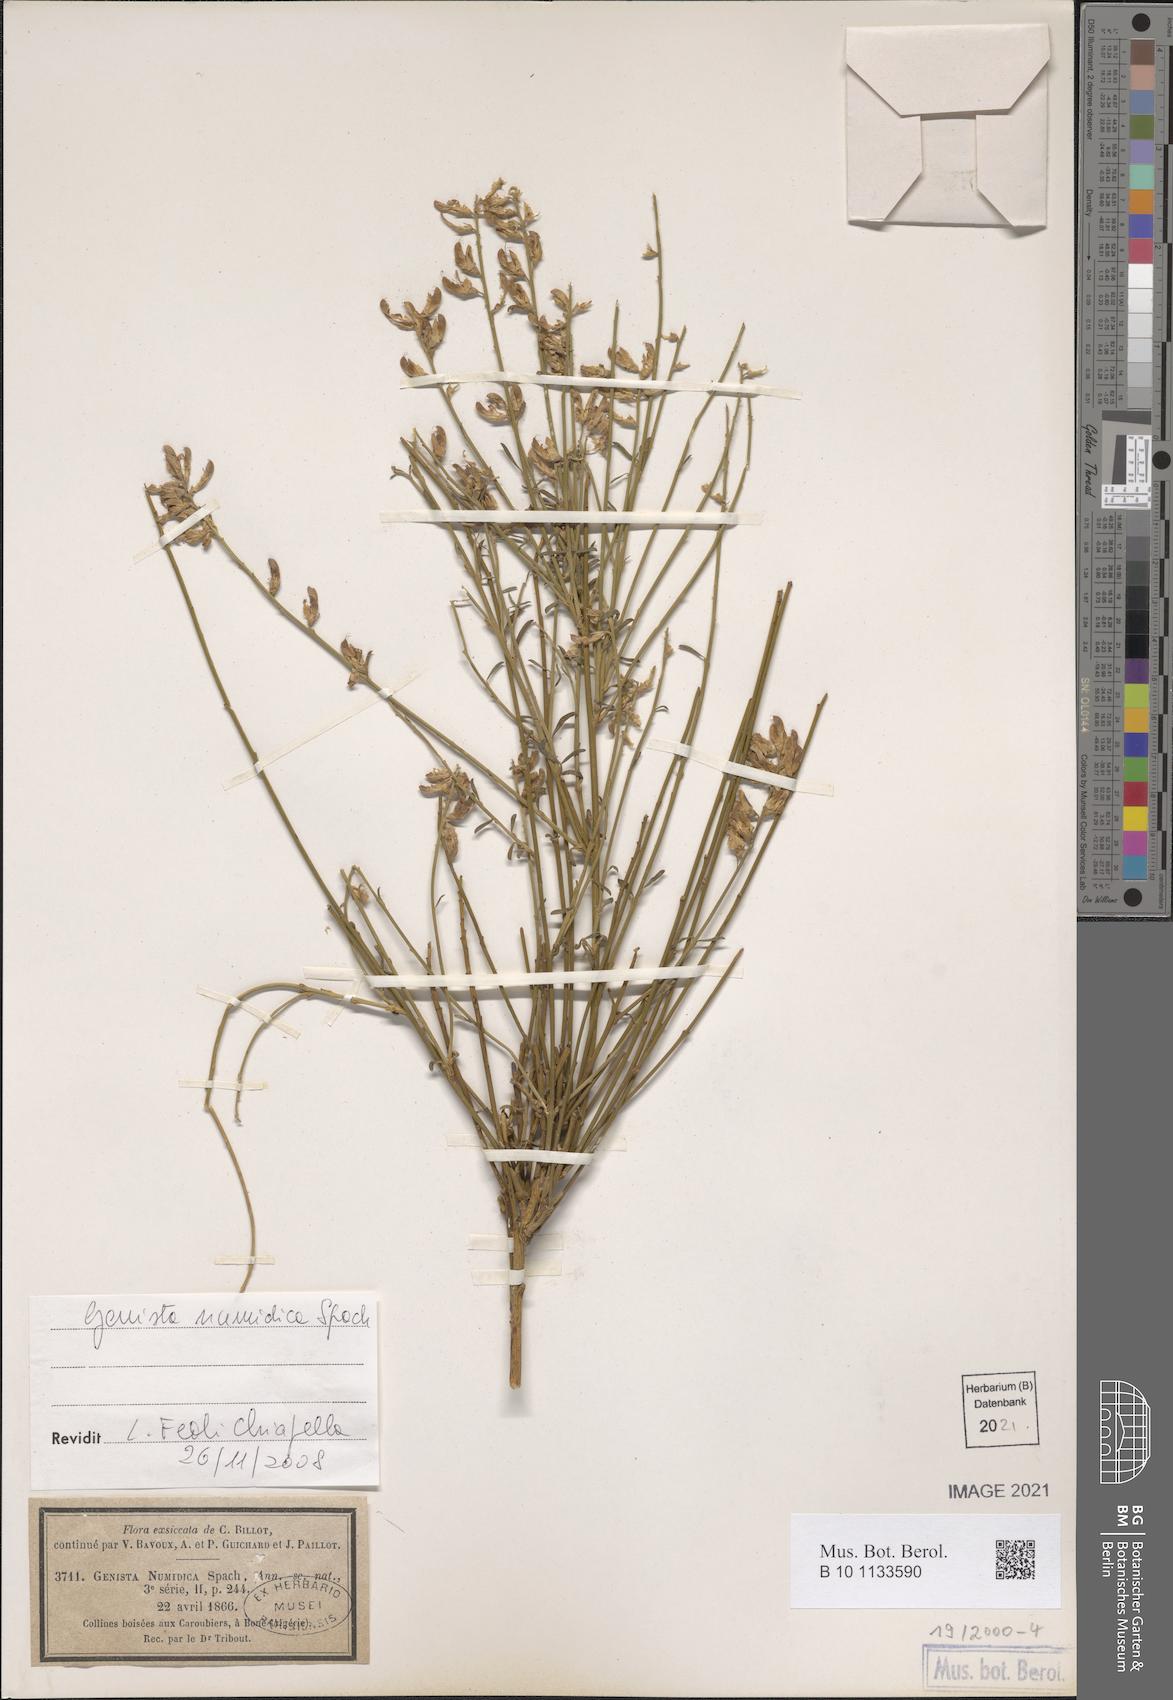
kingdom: Plantae
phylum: Tracheophyta
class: Magnoliopsida
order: Fabales
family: Fabaceae
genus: Genista
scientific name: Genista numidica
